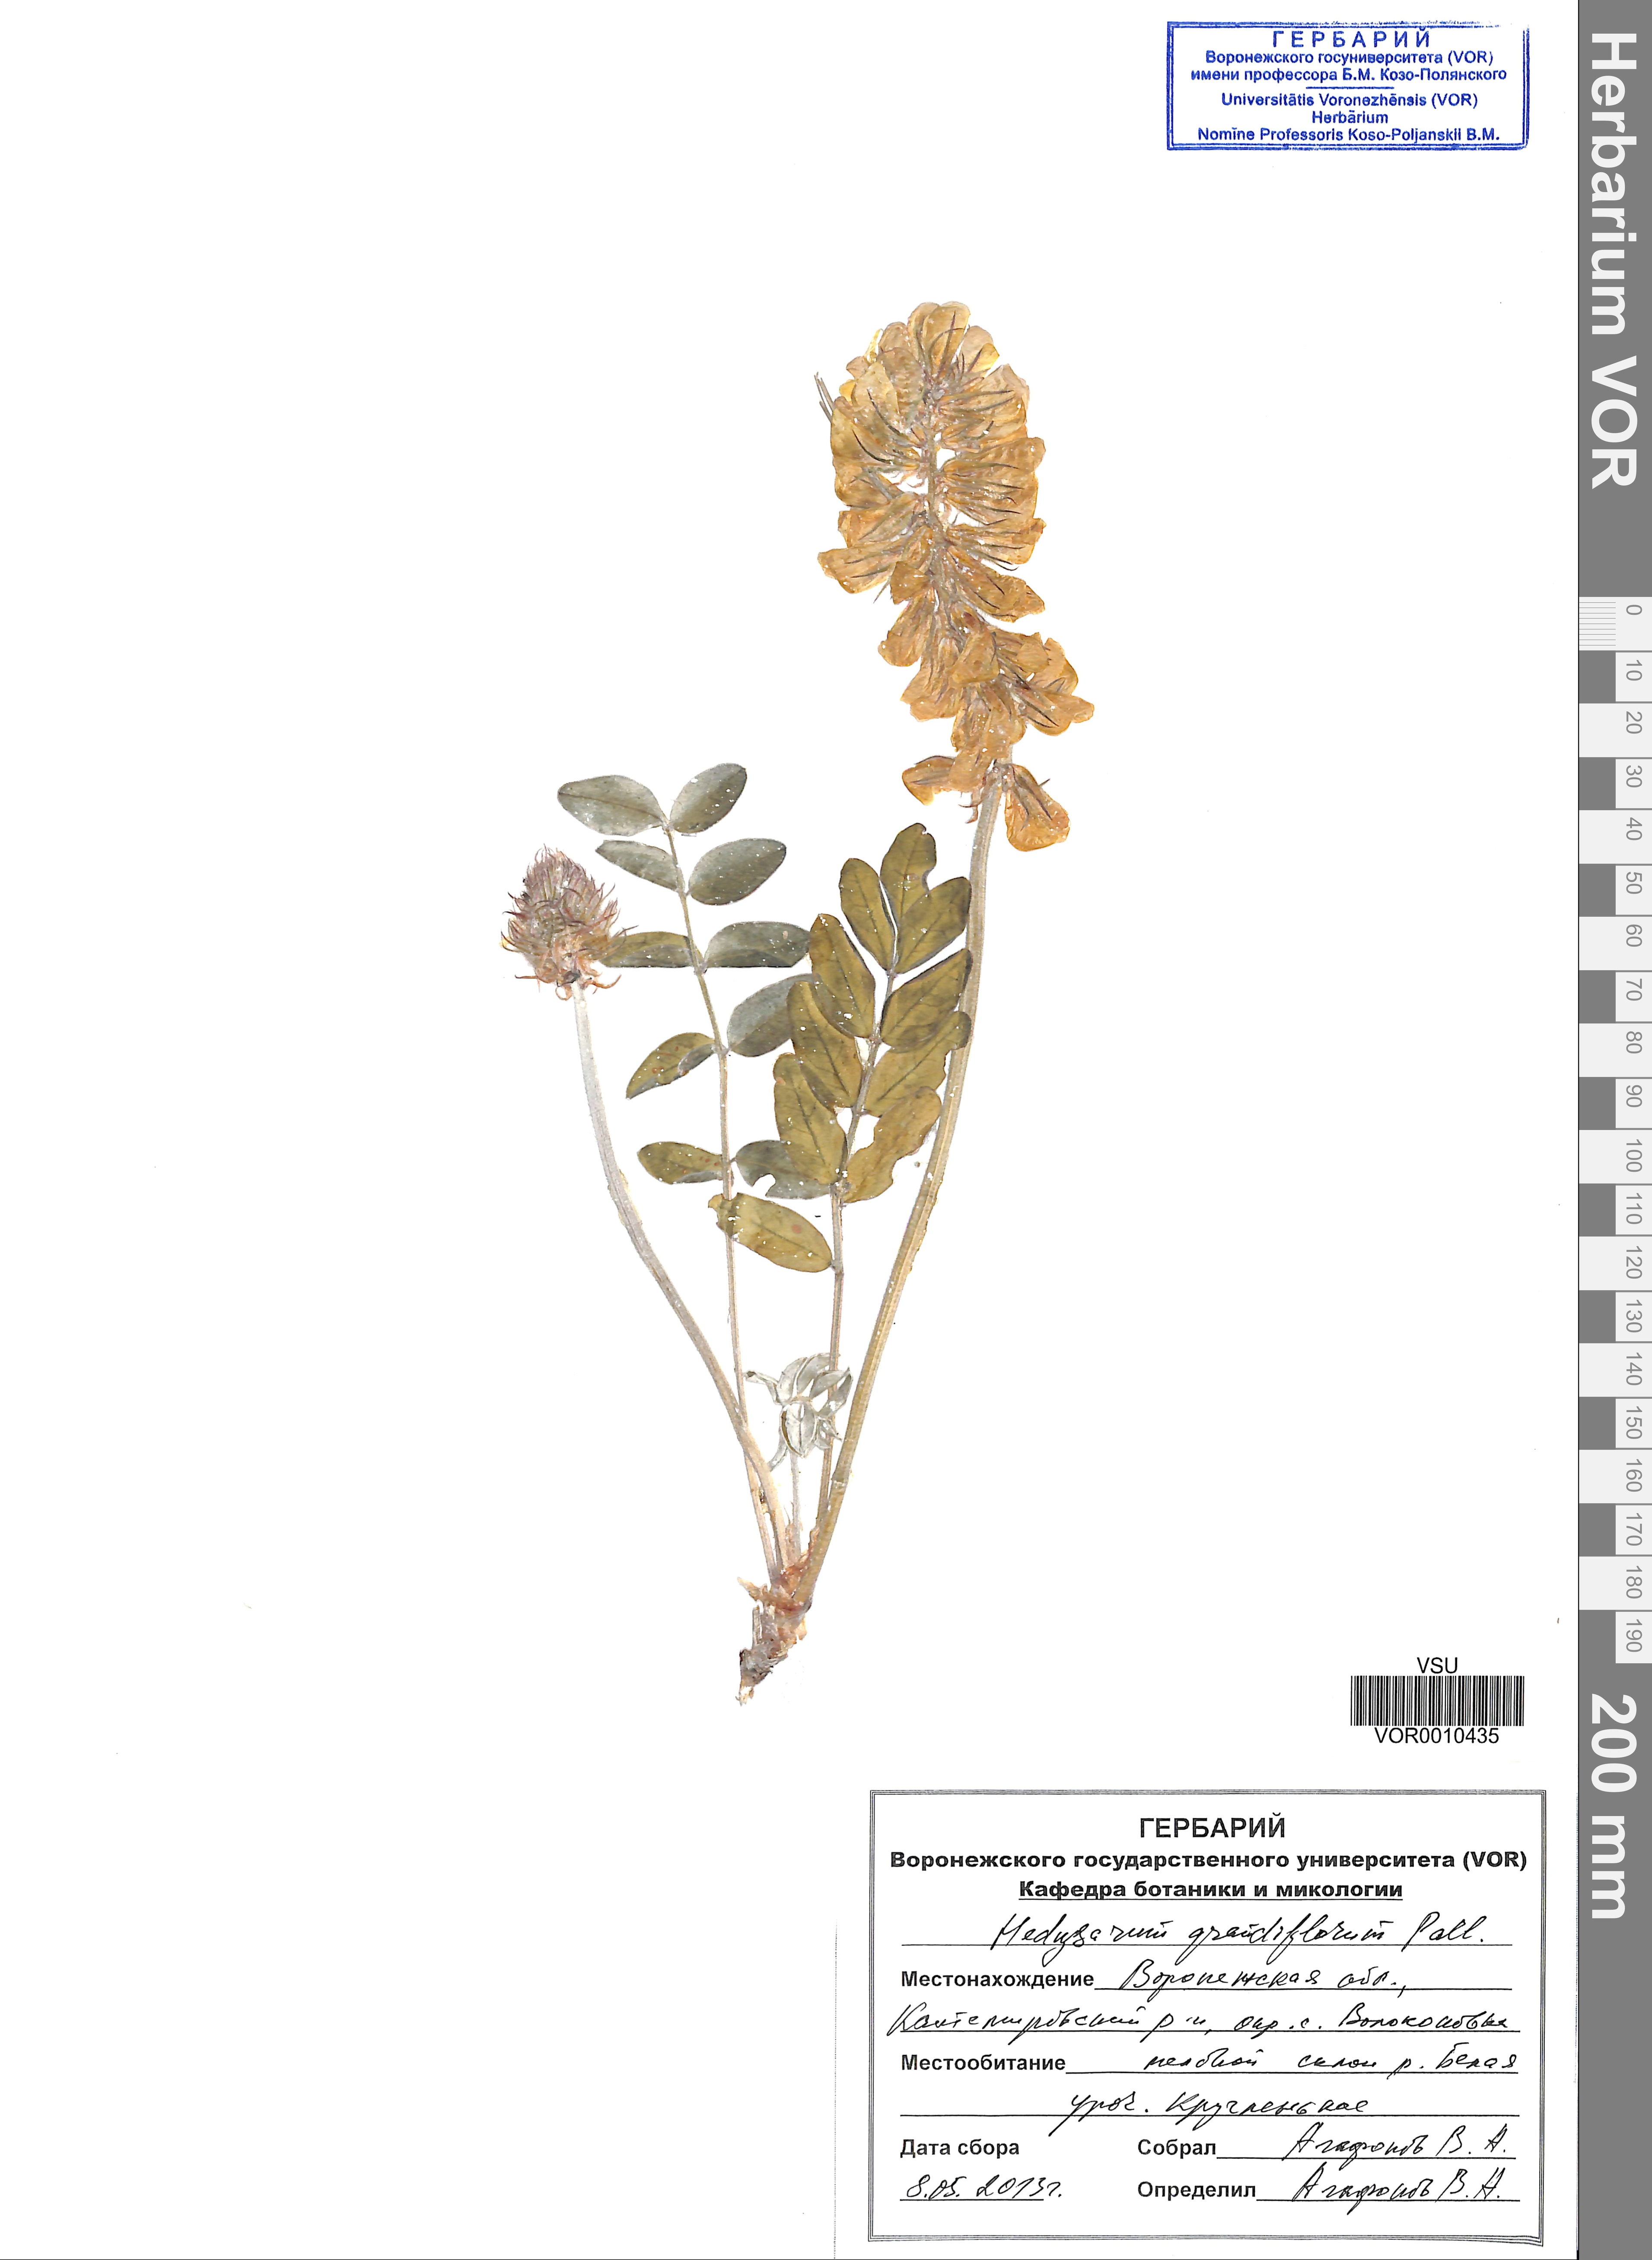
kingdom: Plantae
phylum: Tracheophyta
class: Magnoliopsida
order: Fabales
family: Fabaceae
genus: Hedysarum
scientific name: Hedysarum grandiflorum
